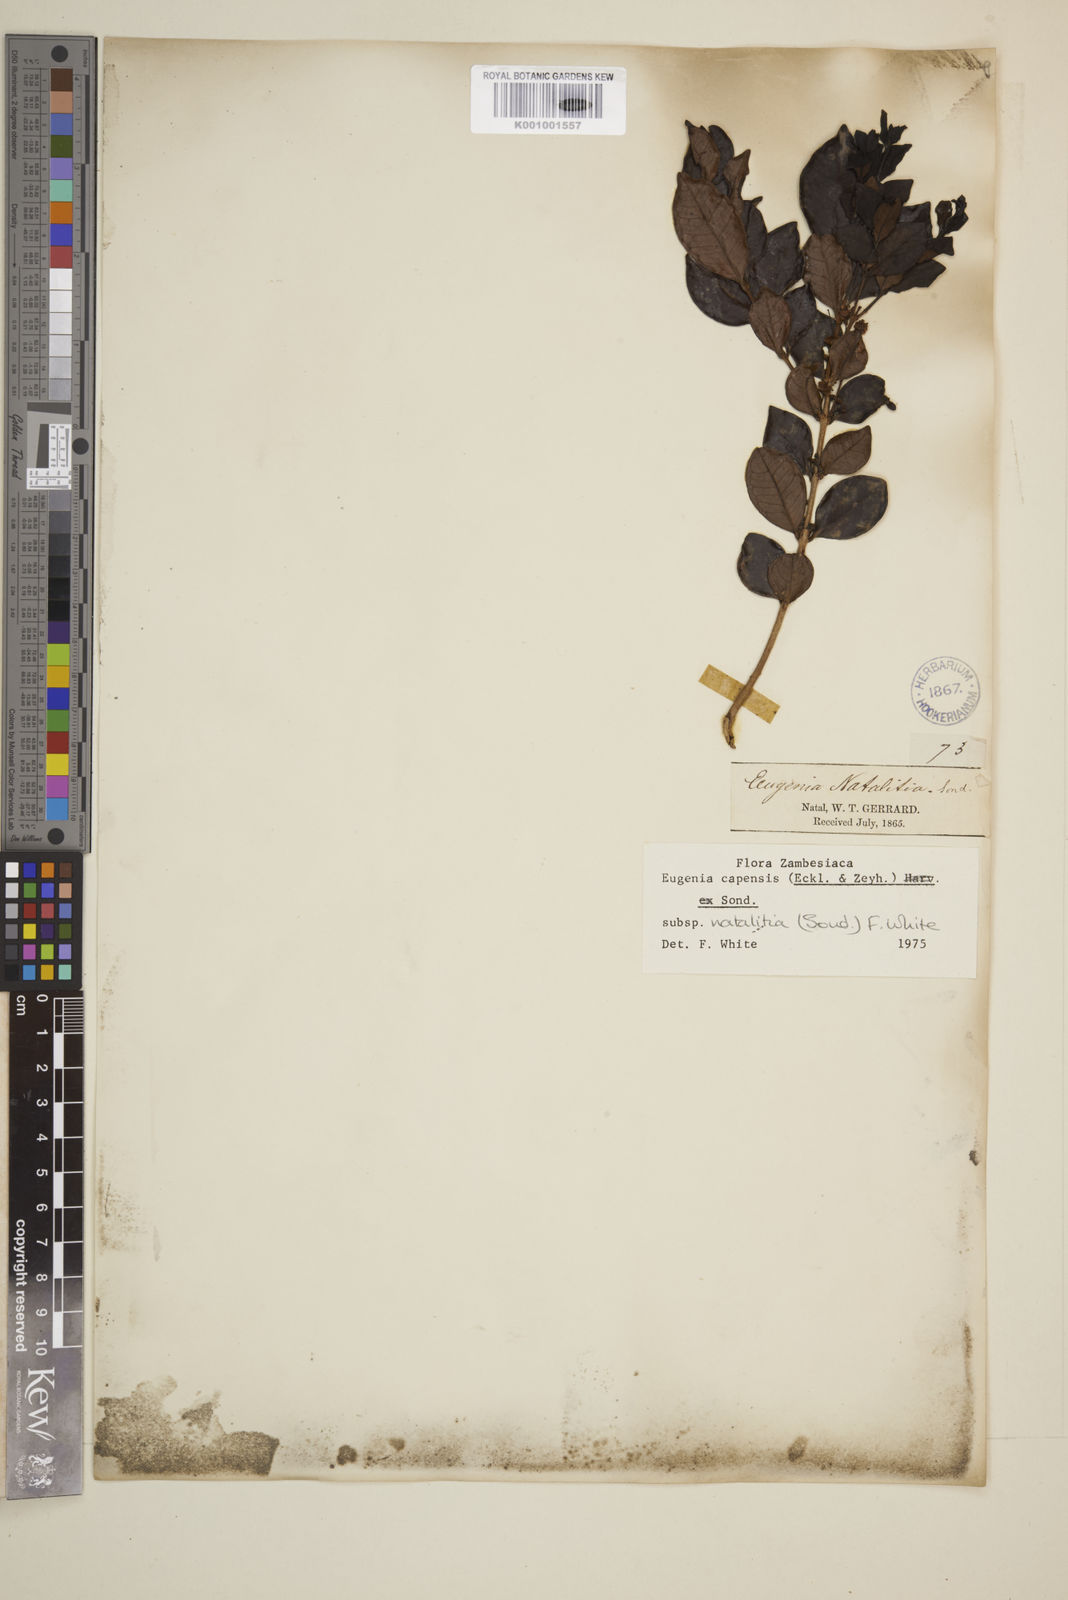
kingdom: Plantae
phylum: Tracheophyta
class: Magnoliopsida
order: Myrtales
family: Myrtaceae
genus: Eugenia
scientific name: Eugenia natalitia
